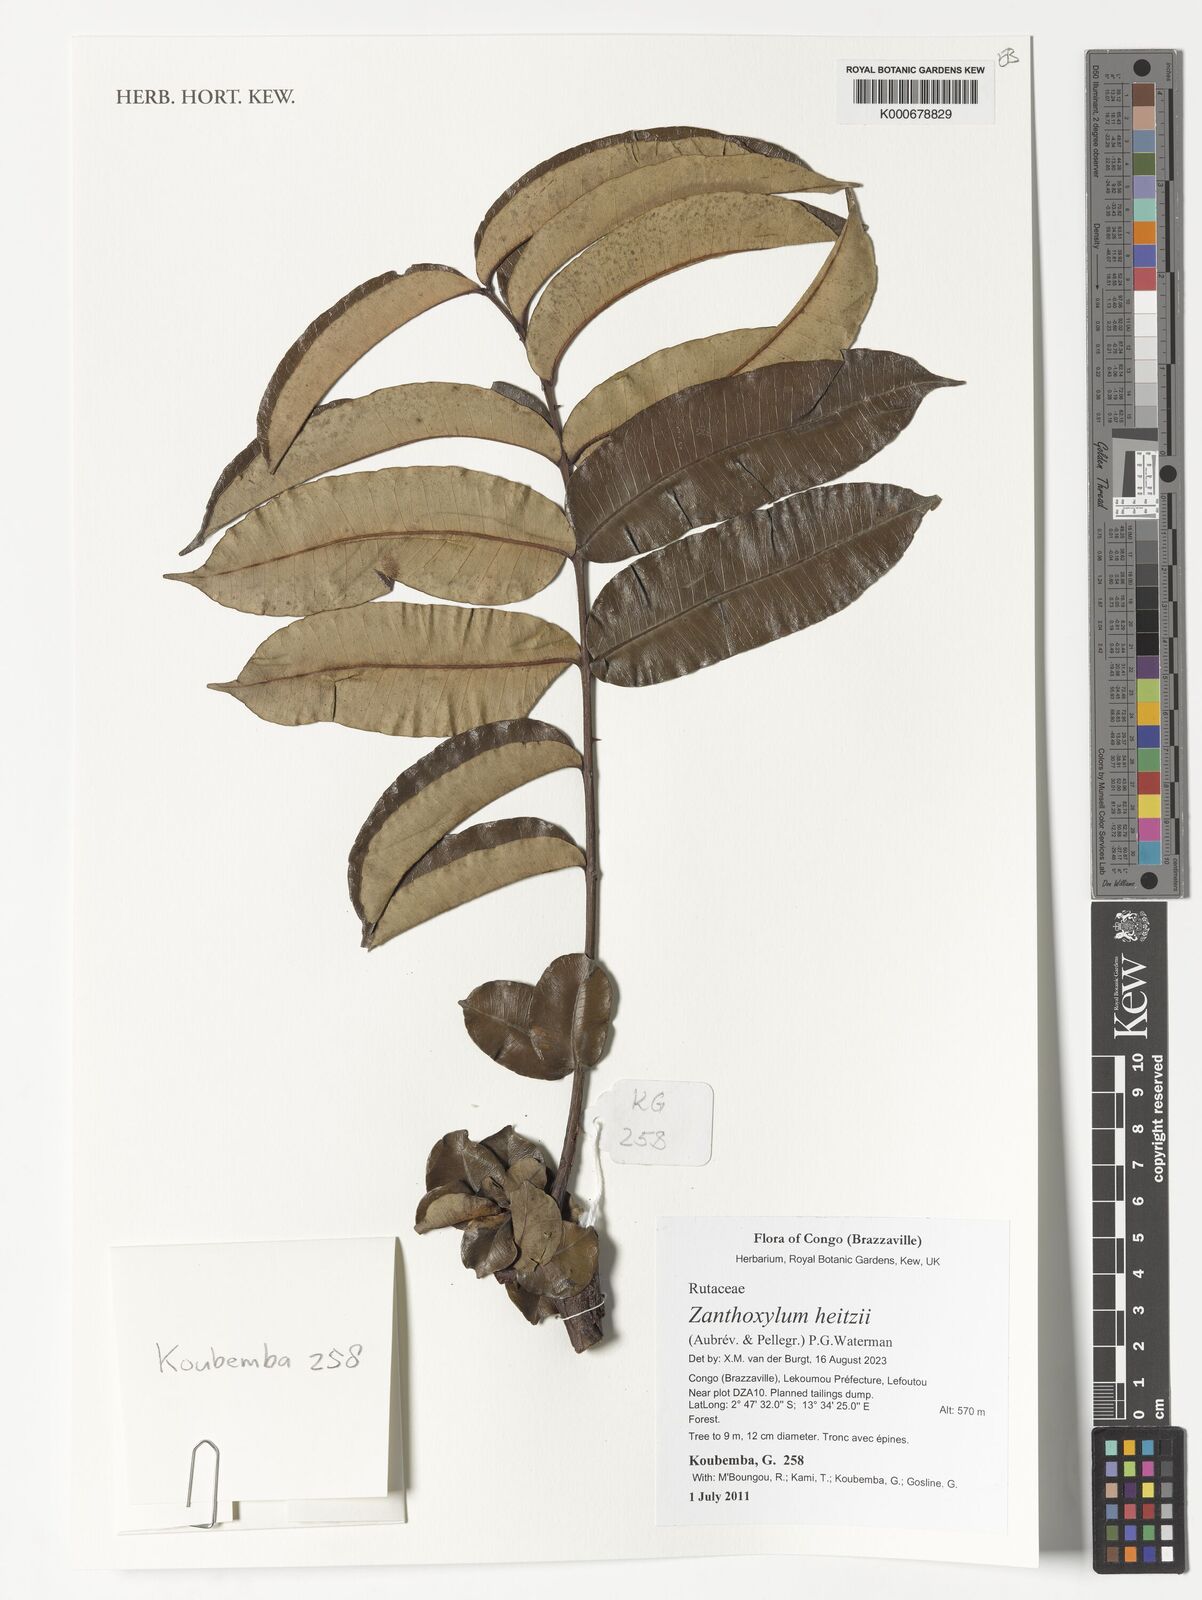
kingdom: Plantae
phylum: Tracheophyta
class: Magnoliopsida
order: Sapindales
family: Rutaceae
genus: Zanthoxylum
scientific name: Zanthoxylum heitzii
